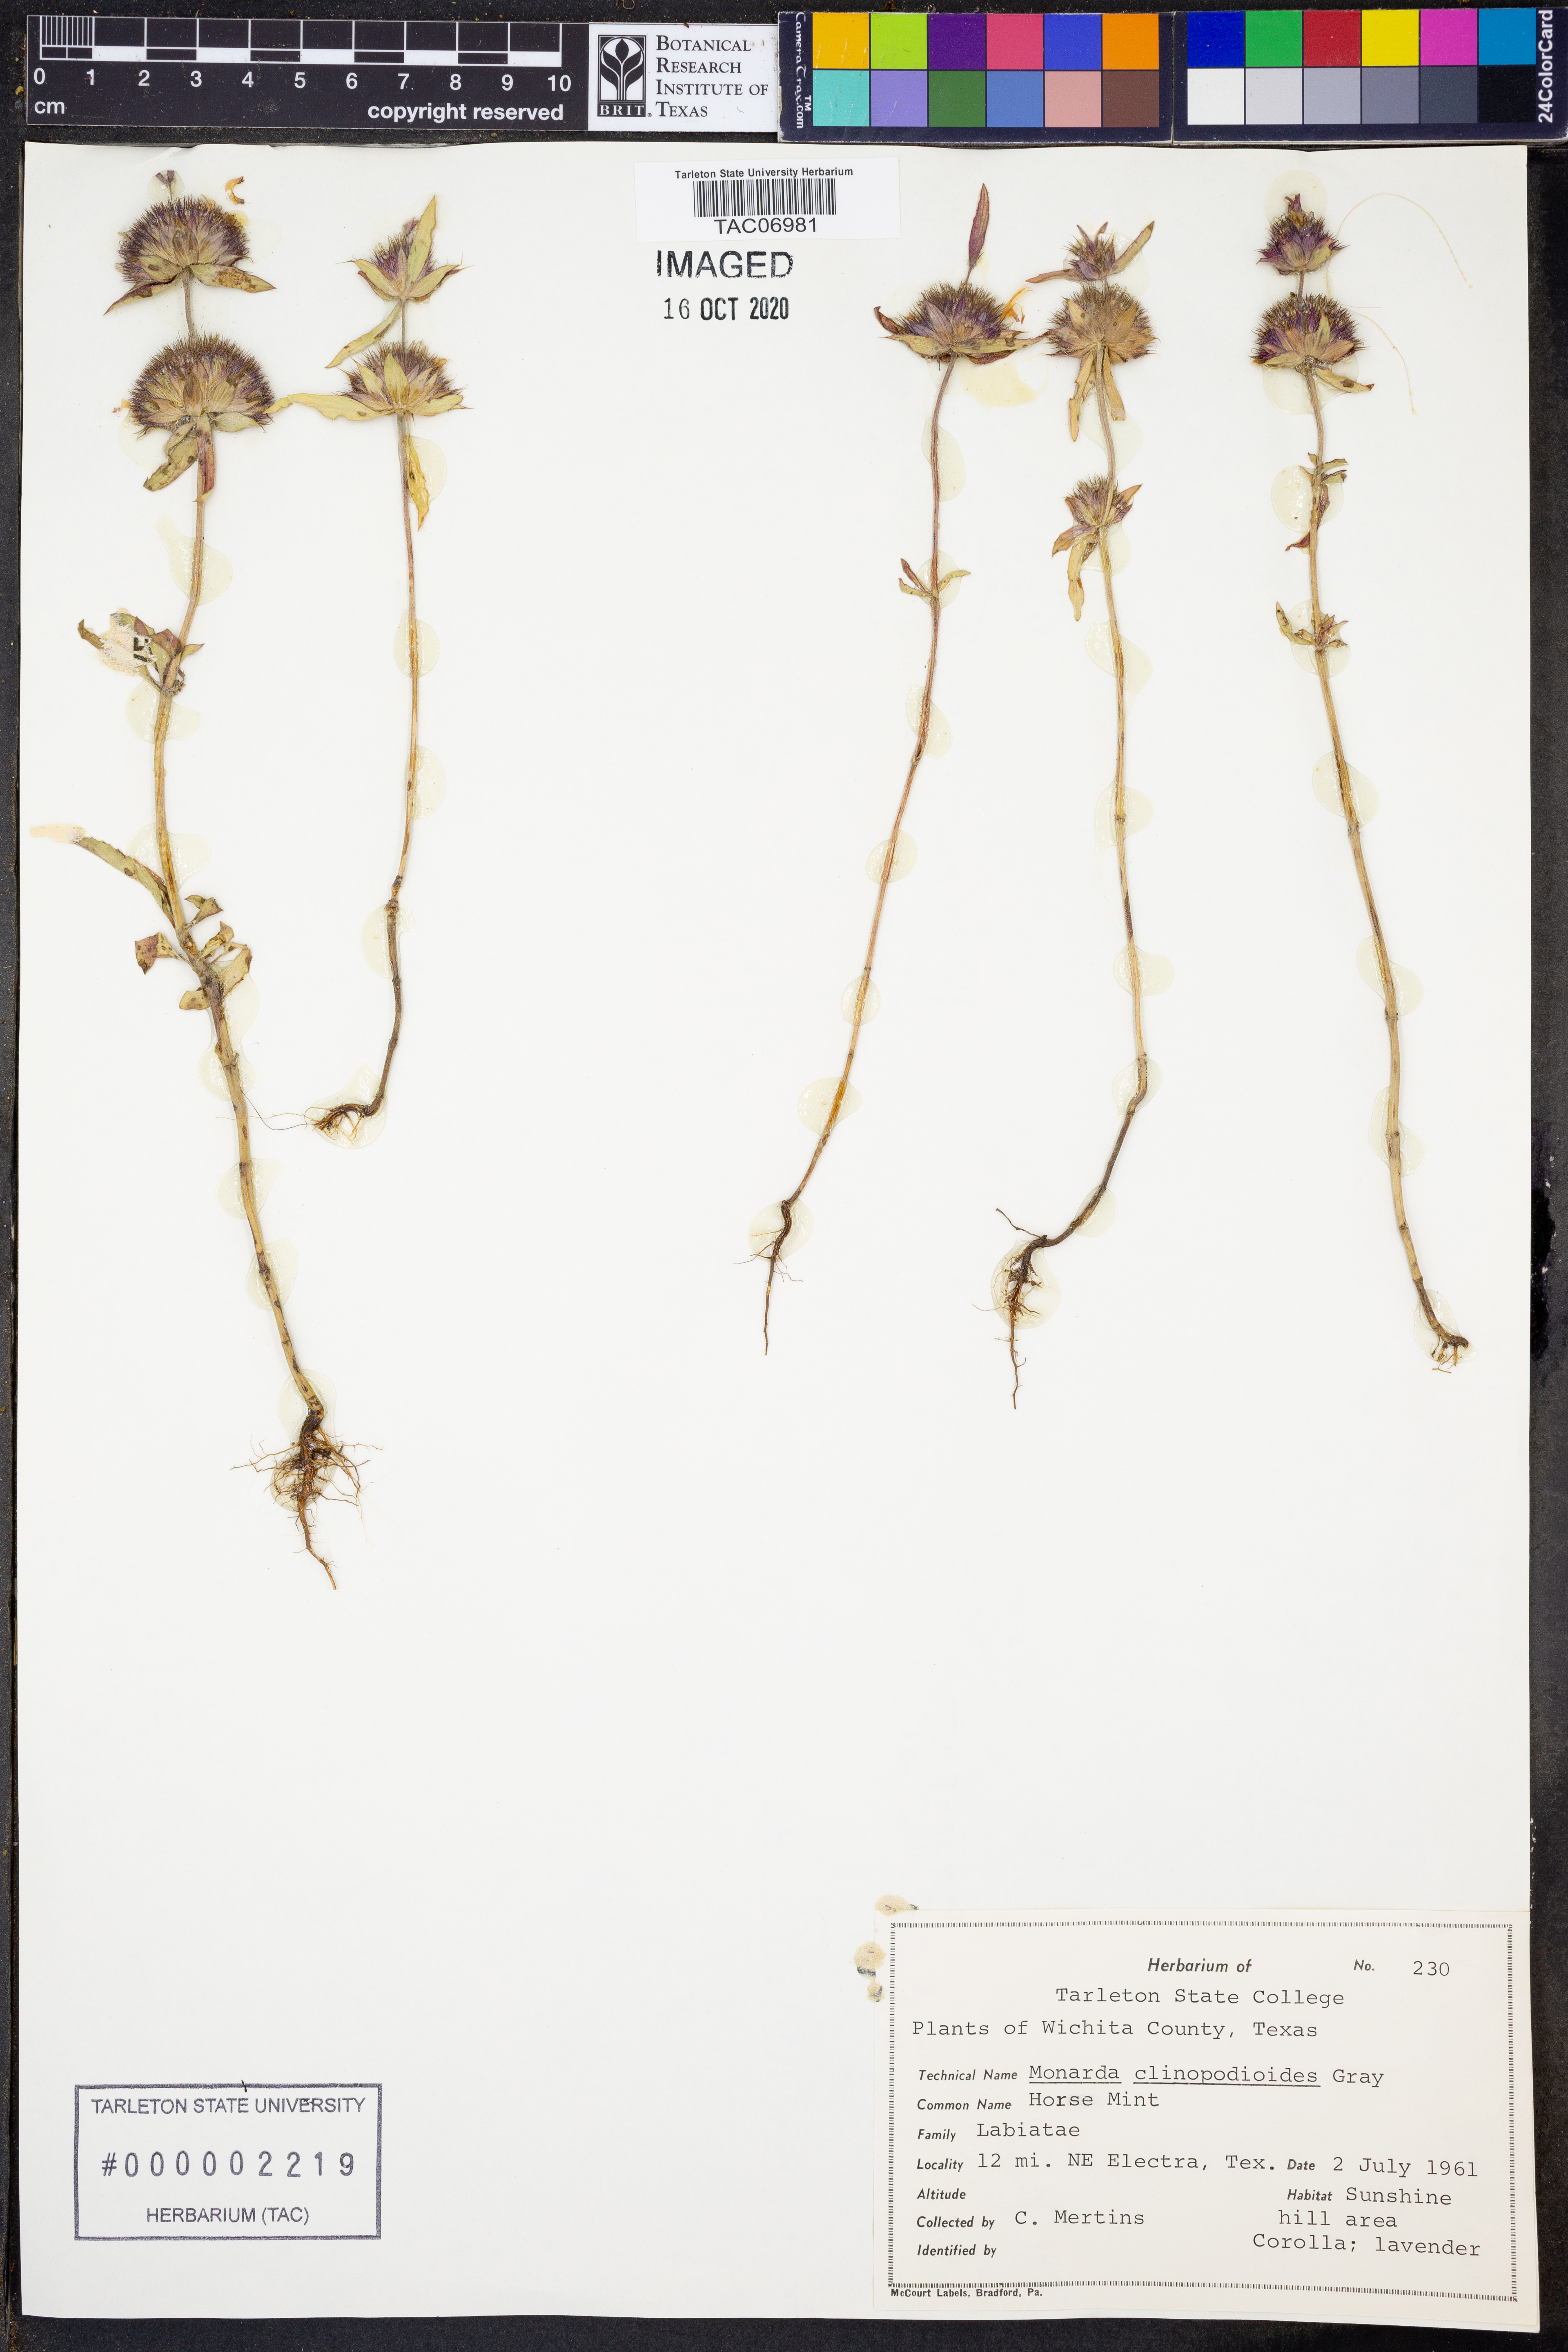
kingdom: Plantae
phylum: Tracheophyta
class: Magnoliopsida
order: Lamiales
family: Lamiaceae
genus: Monarda
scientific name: Monarda clinopodioides
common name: Basil beebalm
